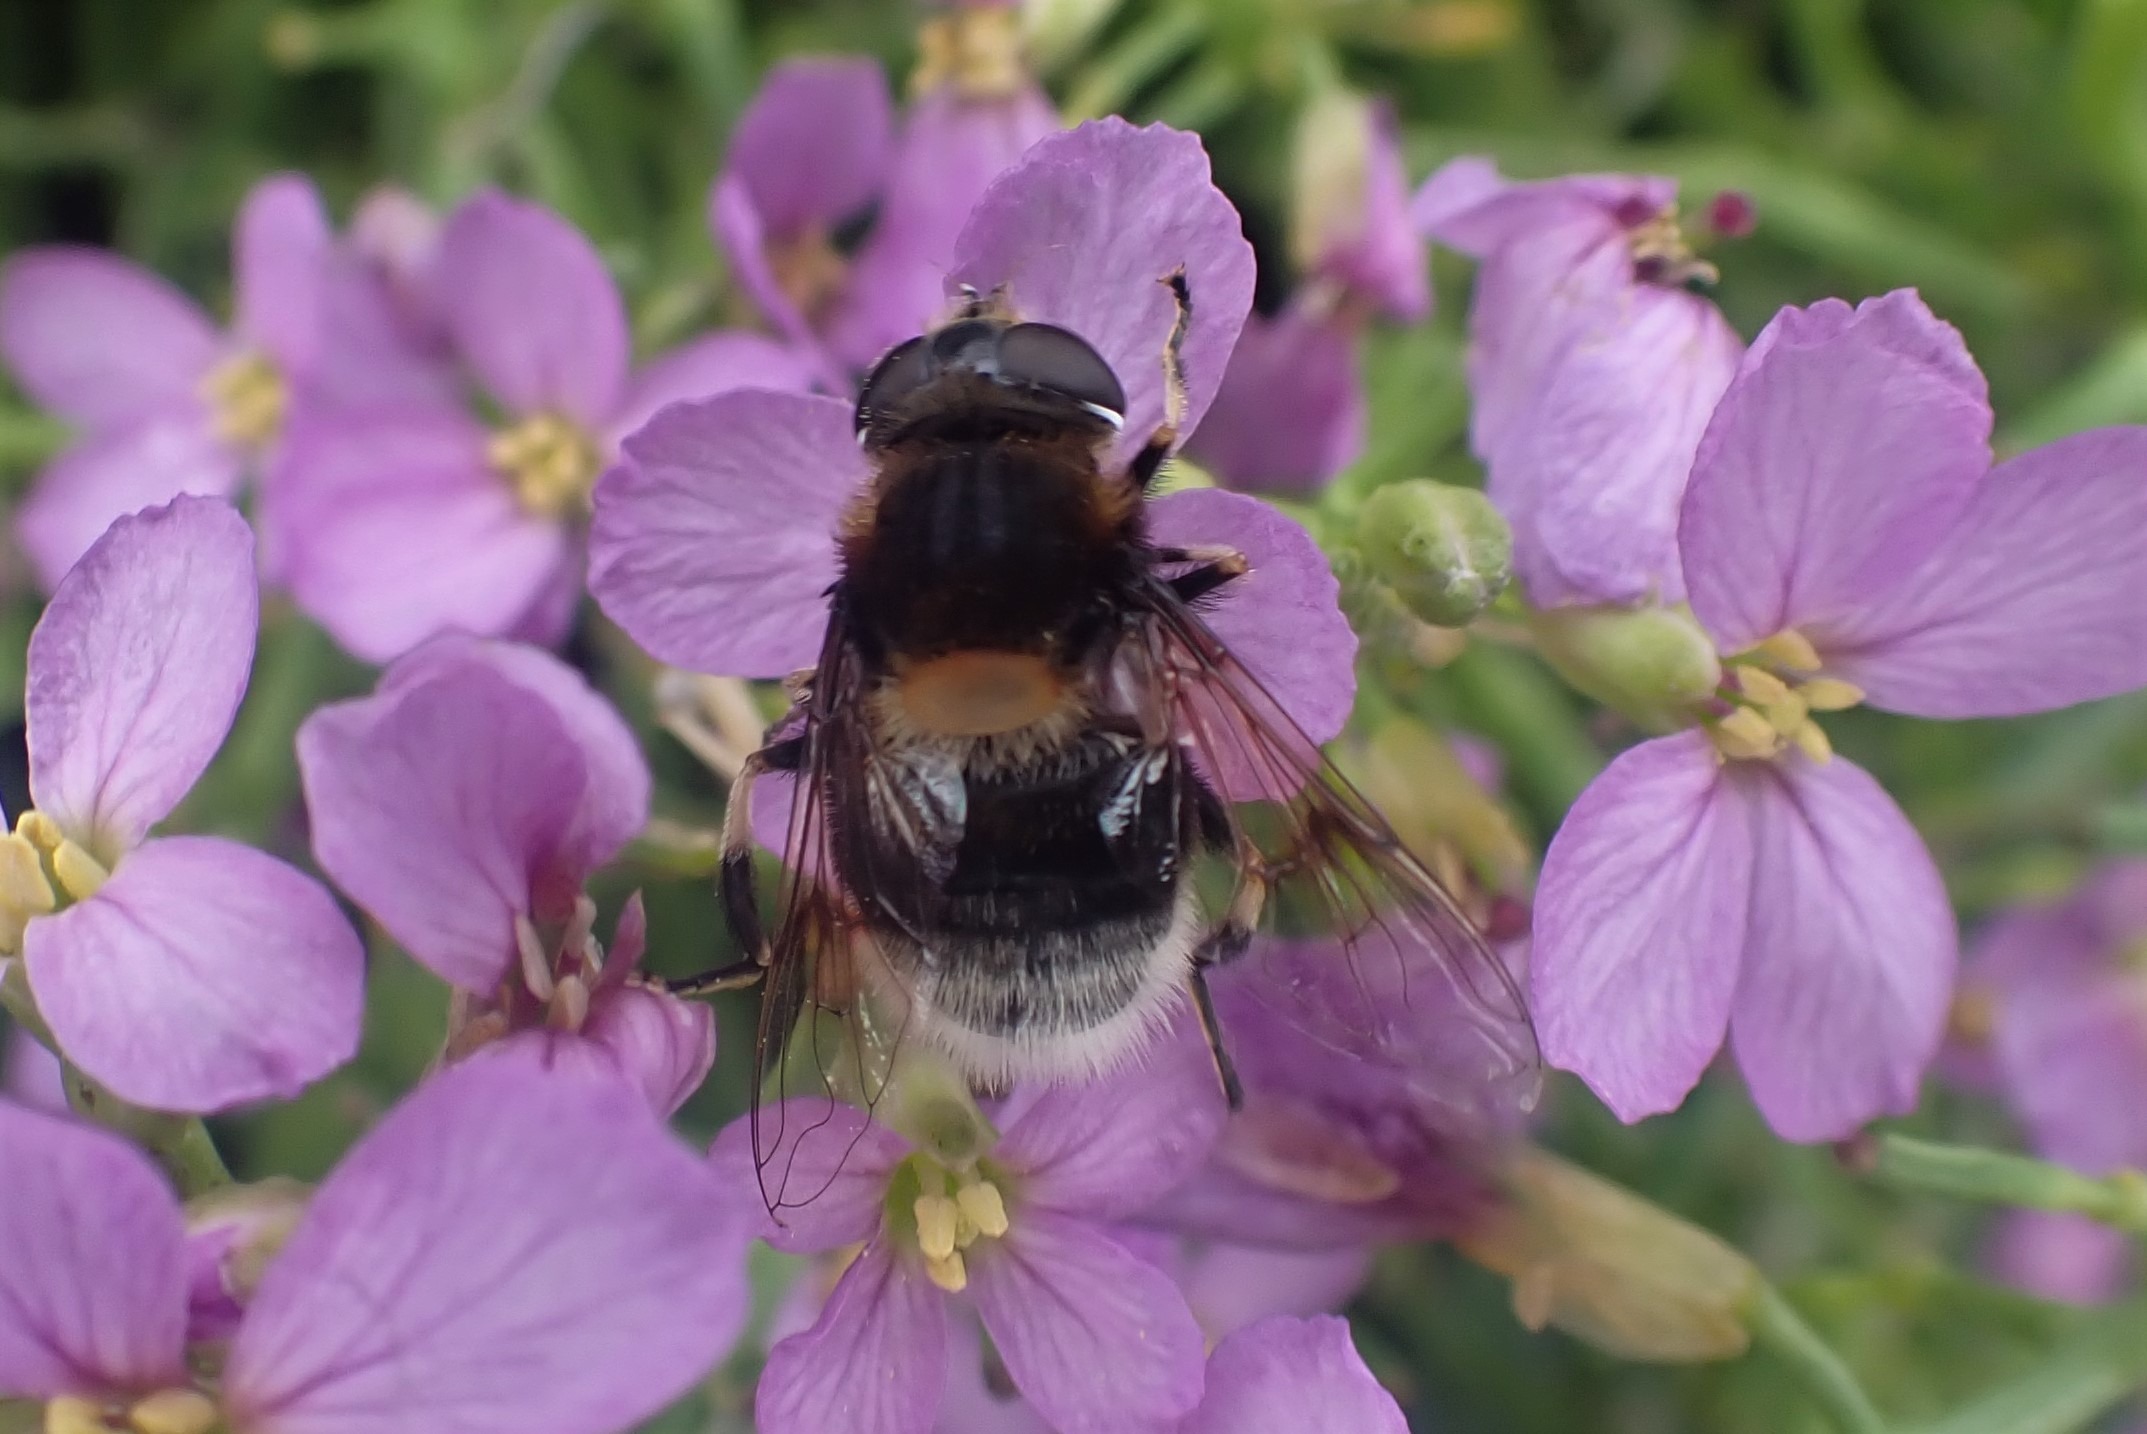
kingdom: Animalia
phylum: Arthropoda
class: Insecta
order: Diptera
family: Syrphidae
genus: Eristalis
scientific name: Eristalis intricaria
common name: Håret dyndflue
